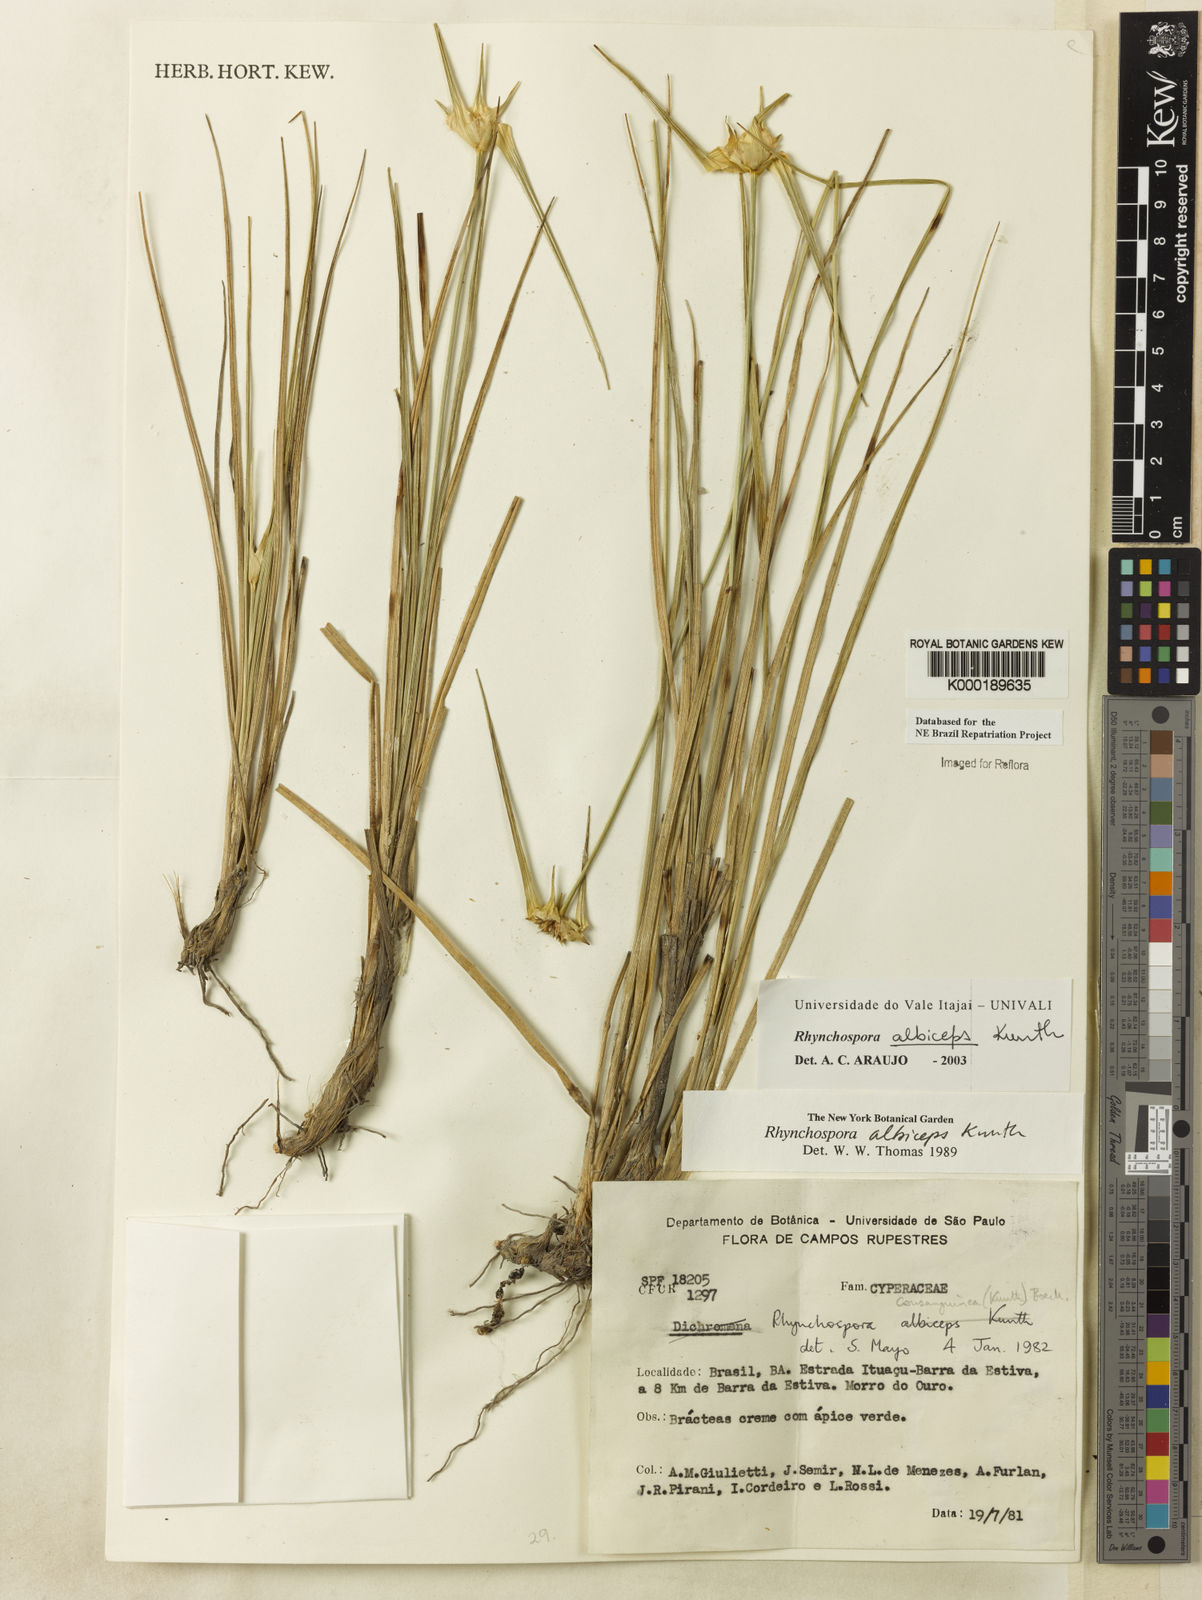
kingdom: Plantae
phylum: Tracheophyta
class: Liliopsida
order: Poales
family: Cyperaceae
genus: Rhynchospora
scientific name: Rhynchospora albiceps
